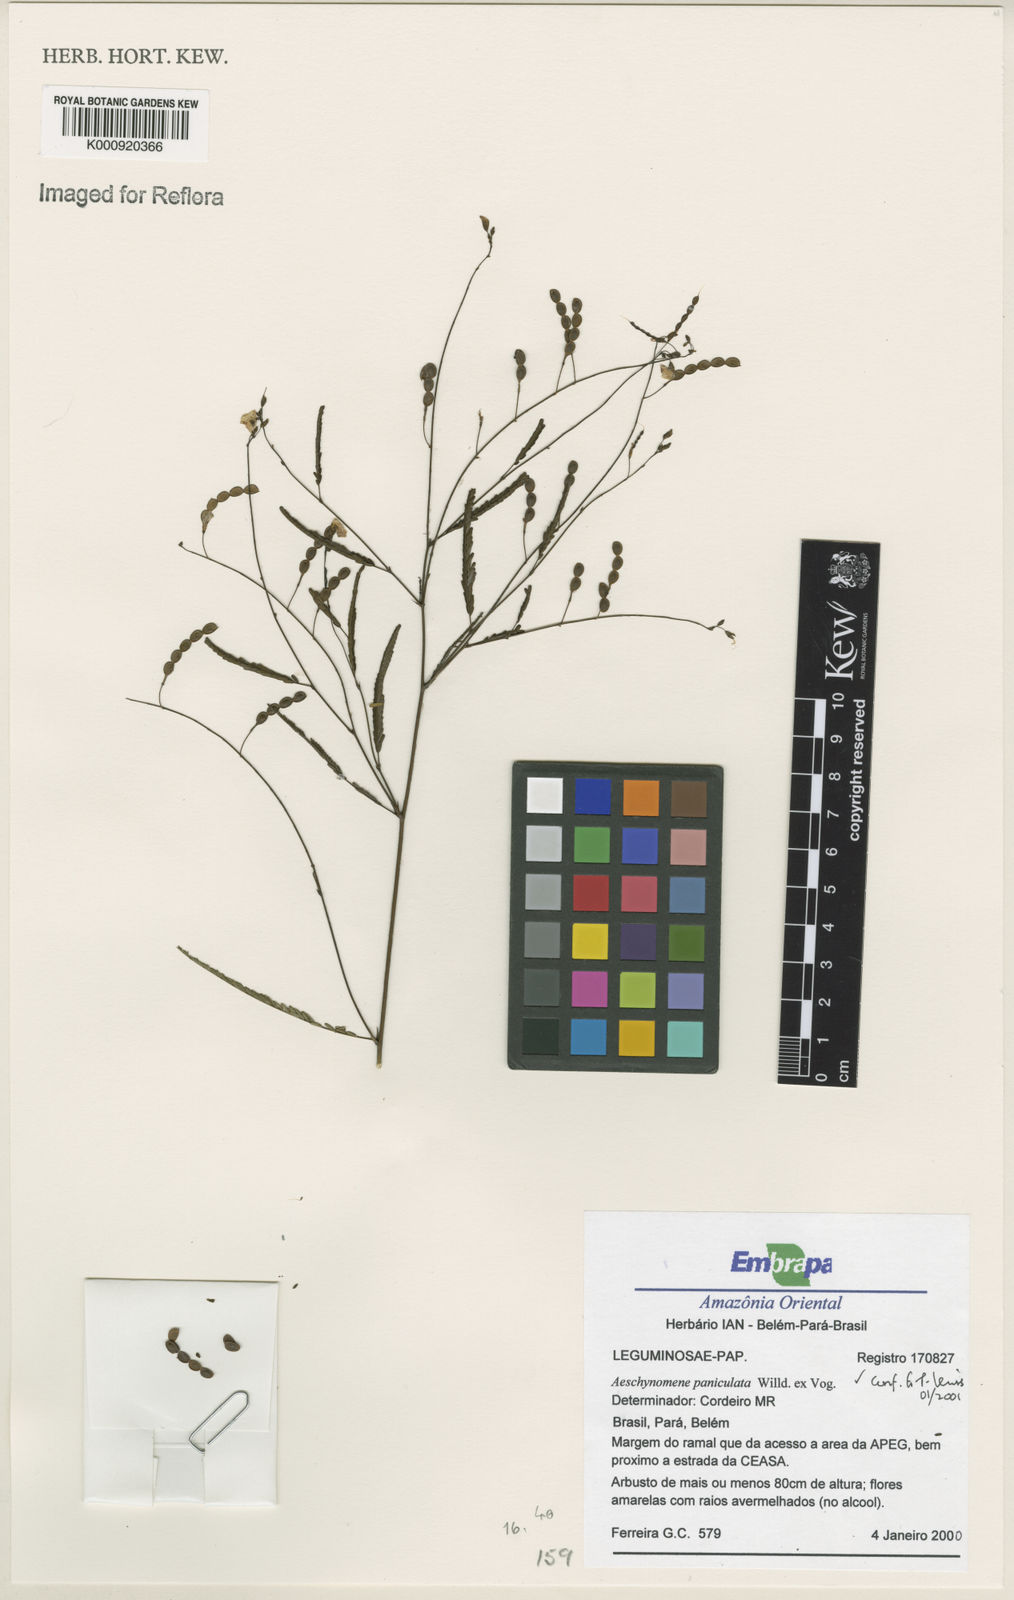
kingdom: Plantae
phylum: Tracheophyta
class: Magnoliopsida
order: Fabales
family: Fabaceae
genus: Ctenodon
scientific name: Ctenodon paniculatus
